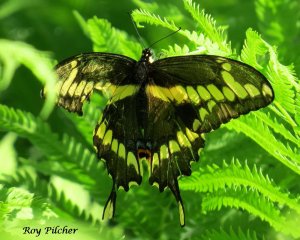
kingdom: Animalia
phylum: Arthropoda
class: Insecta
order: Lepidoptera
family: Papilionidae
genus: Papilio
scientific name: Papilio cresphontes
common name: Eastern Giant Swallowtail
